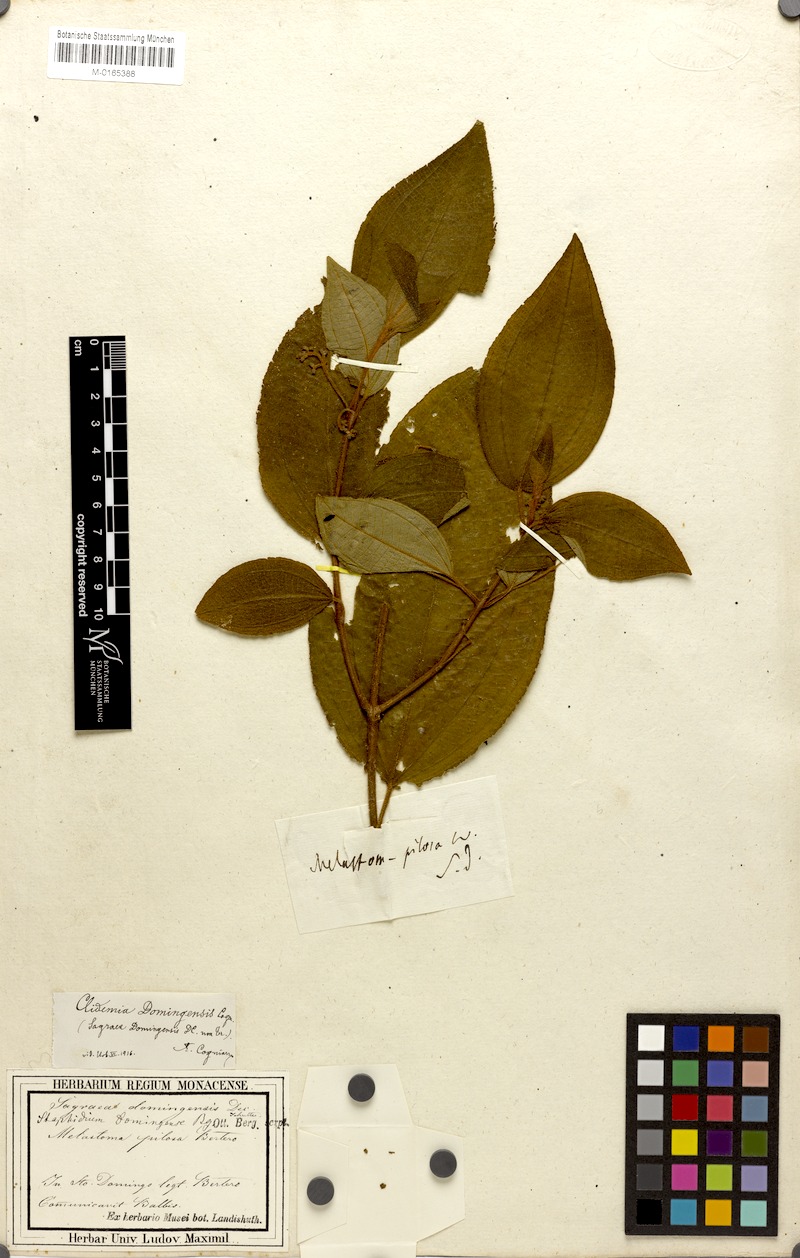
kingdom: Plantae
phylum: Tracheophyta
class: Magnoliopsida
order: Myrtales
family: Melastomataceae
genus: Miconia
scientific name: Miconia hispaniolica
